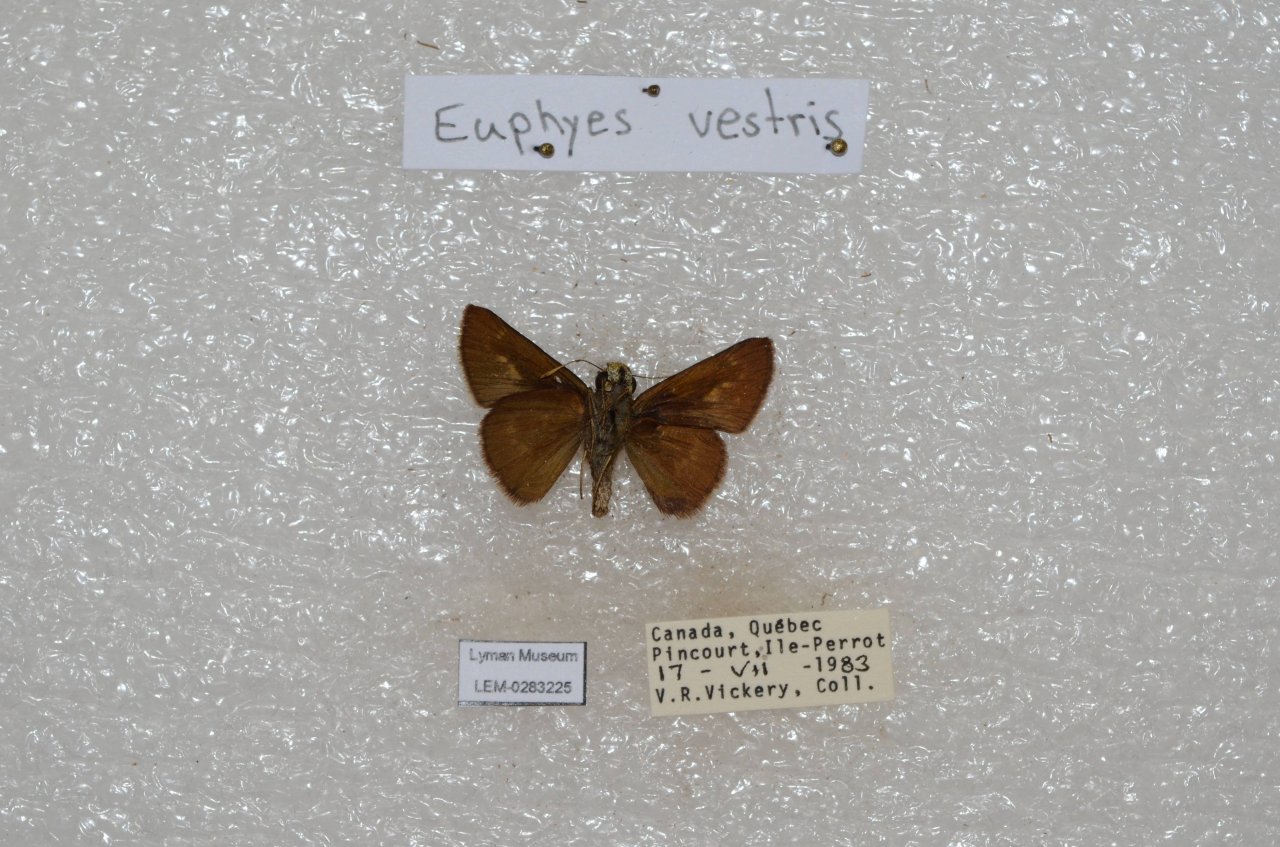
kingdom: Animalia
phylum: Arthropoda
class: Insecta
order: Lepidoptera
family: Hesperiidae
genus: Euphyes
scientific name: Euphyes vestris
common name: Dun Skipper
